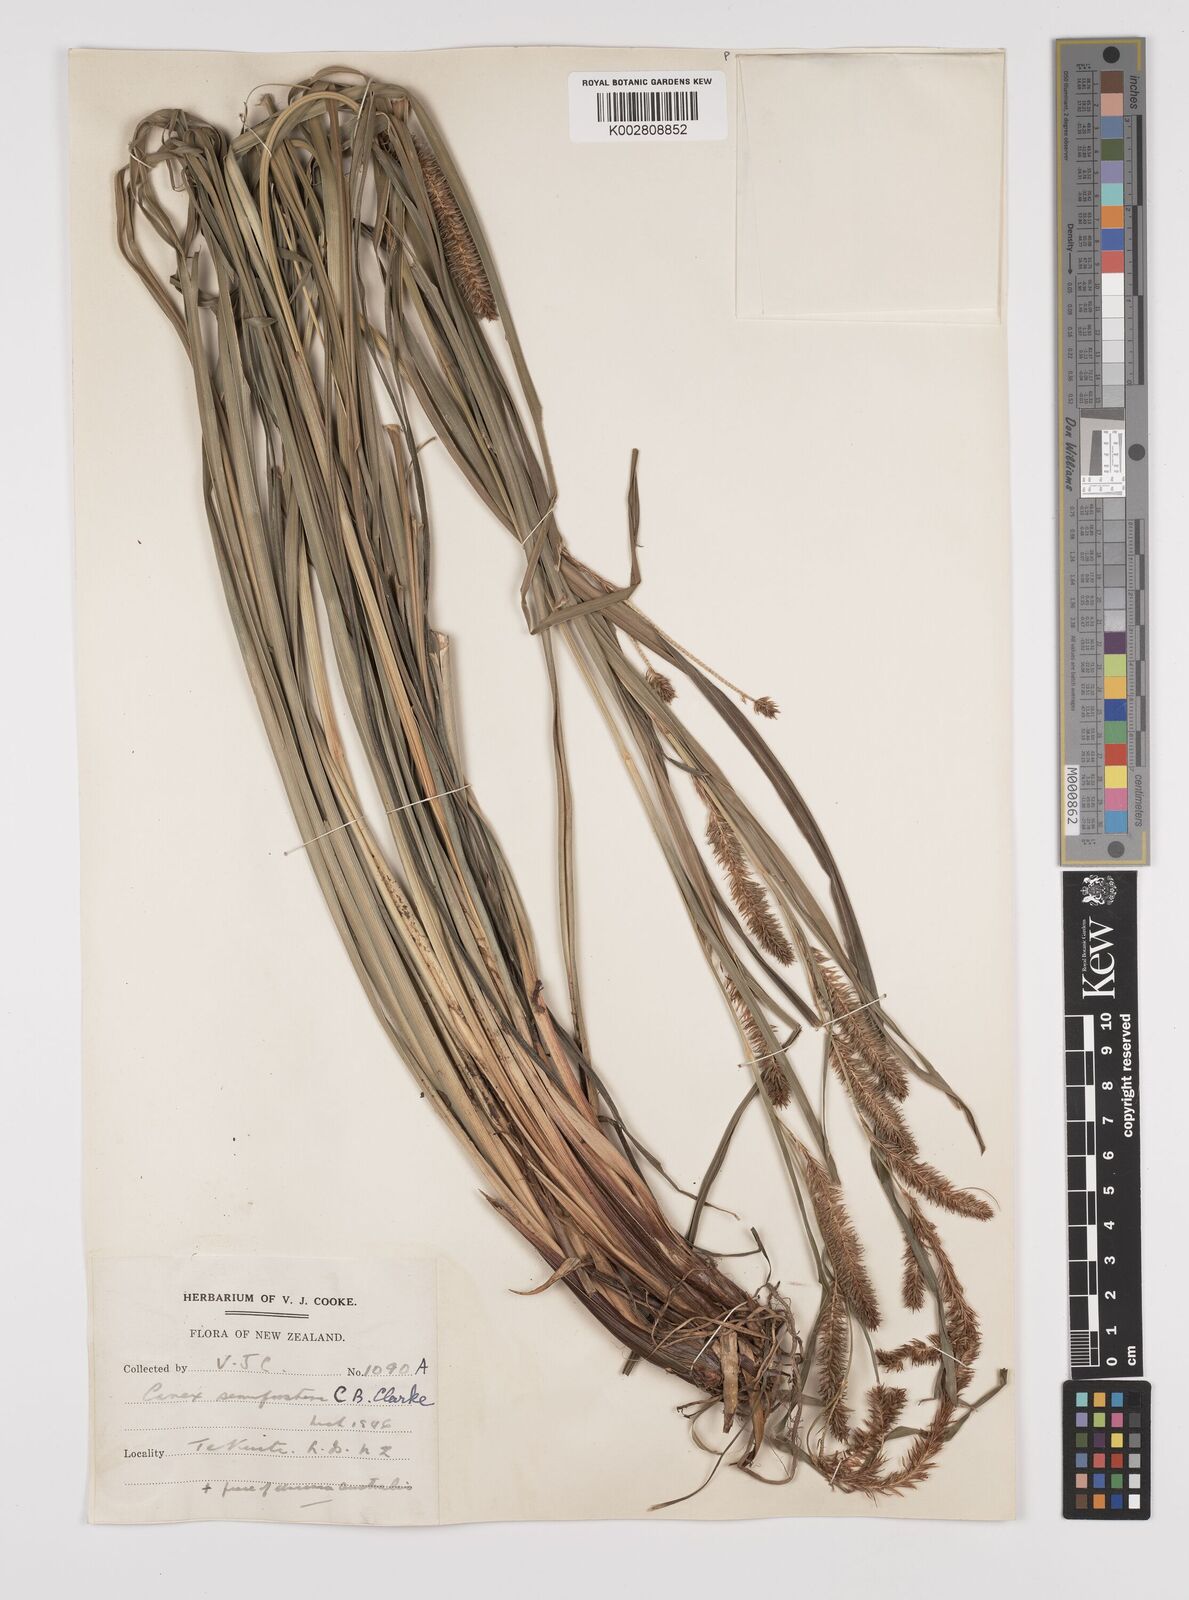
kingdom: Plantae
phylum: Tracheophyta
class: Liliopsida
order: Poales
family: Cyperaceae
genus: Carex
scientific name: Carex forsteri
